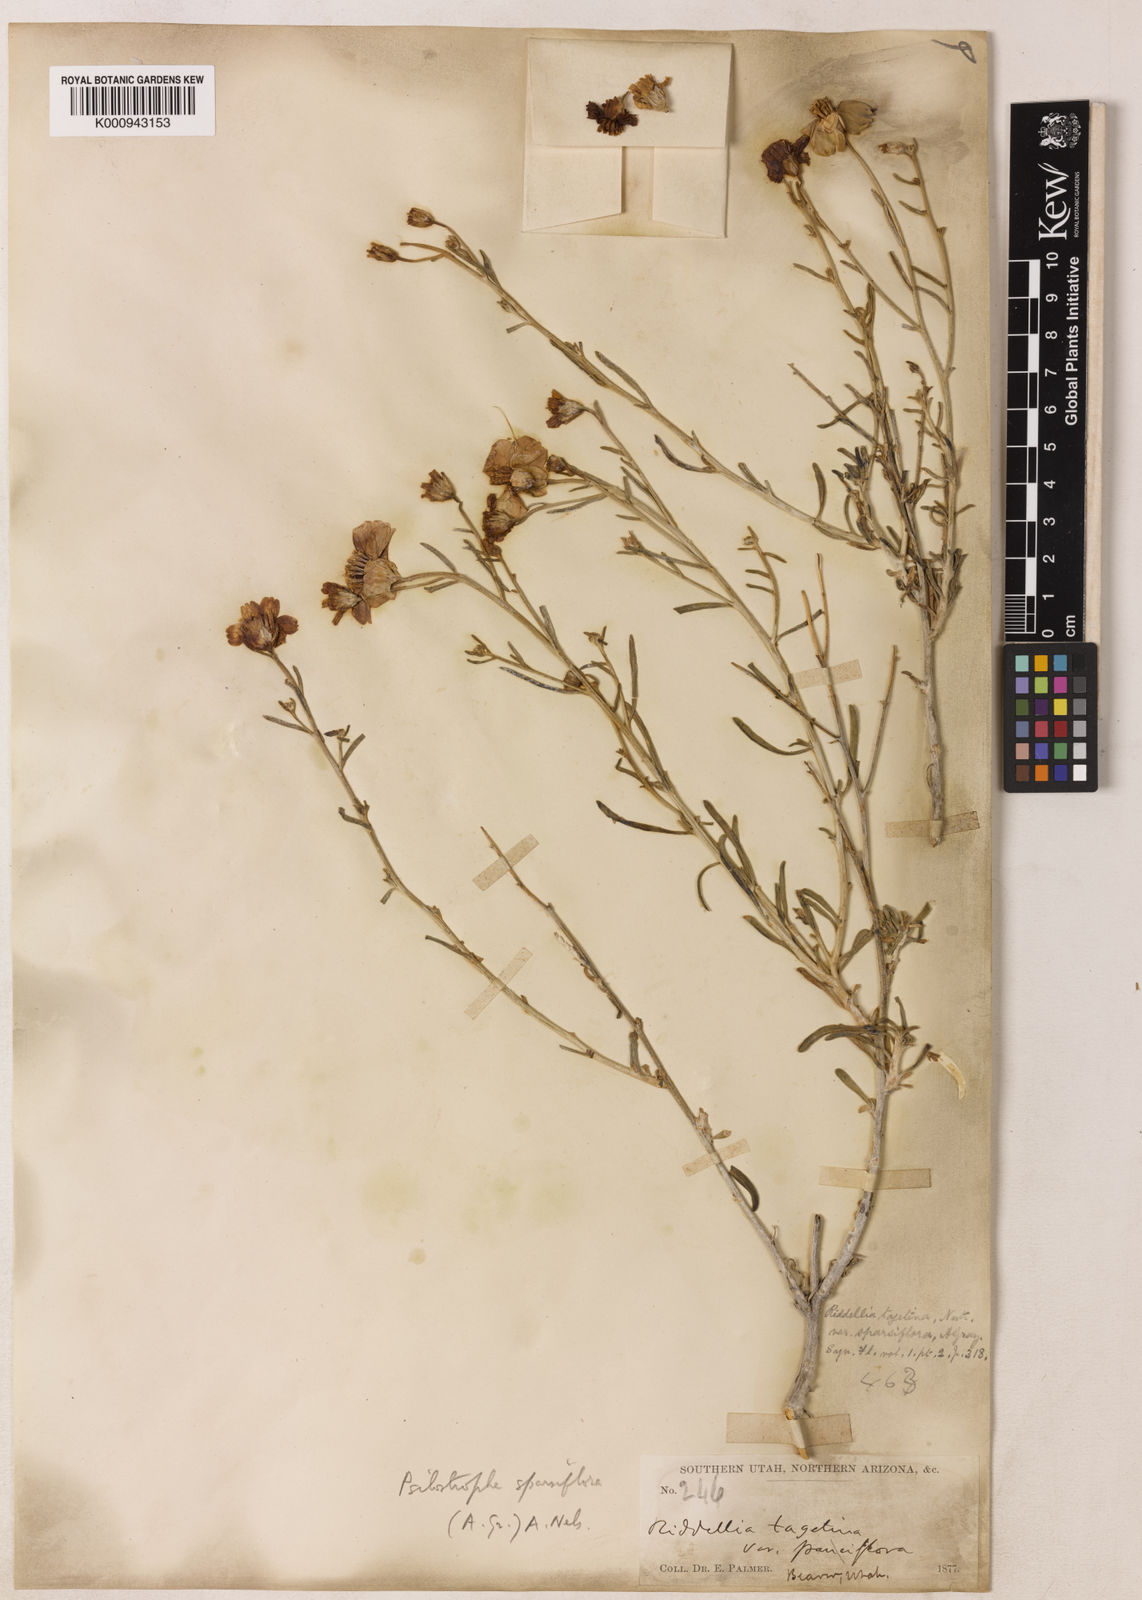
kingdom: Plantae
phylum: Tracheophyta
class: Magnoliopsida
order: Asterales
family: Asteraceae
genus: Psilostrophe
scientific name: Psilostrophe sparsiflora
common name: Green-stem paper-flower
